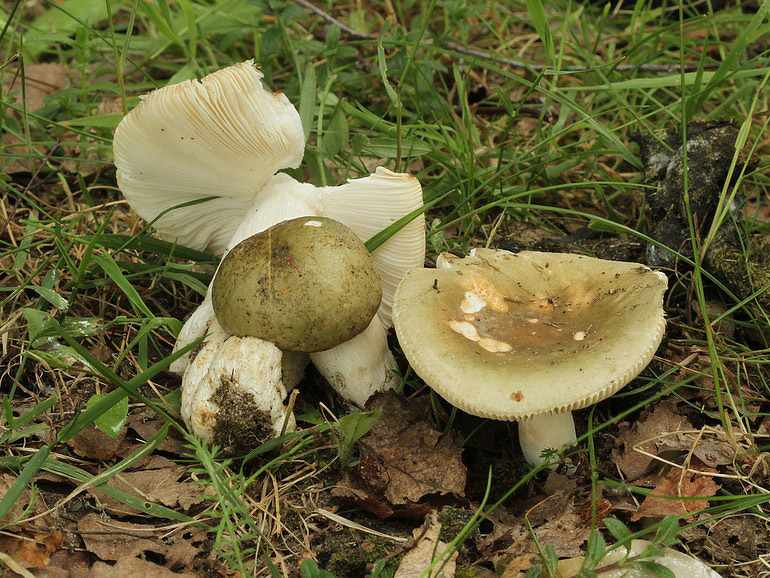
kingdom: Fungi
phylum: Basidiomycota
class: Agaricomycetes
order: Russulales
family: Russulaceae
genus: Russula
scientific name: Russula aeruginea
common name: græsgrøn skørhat
